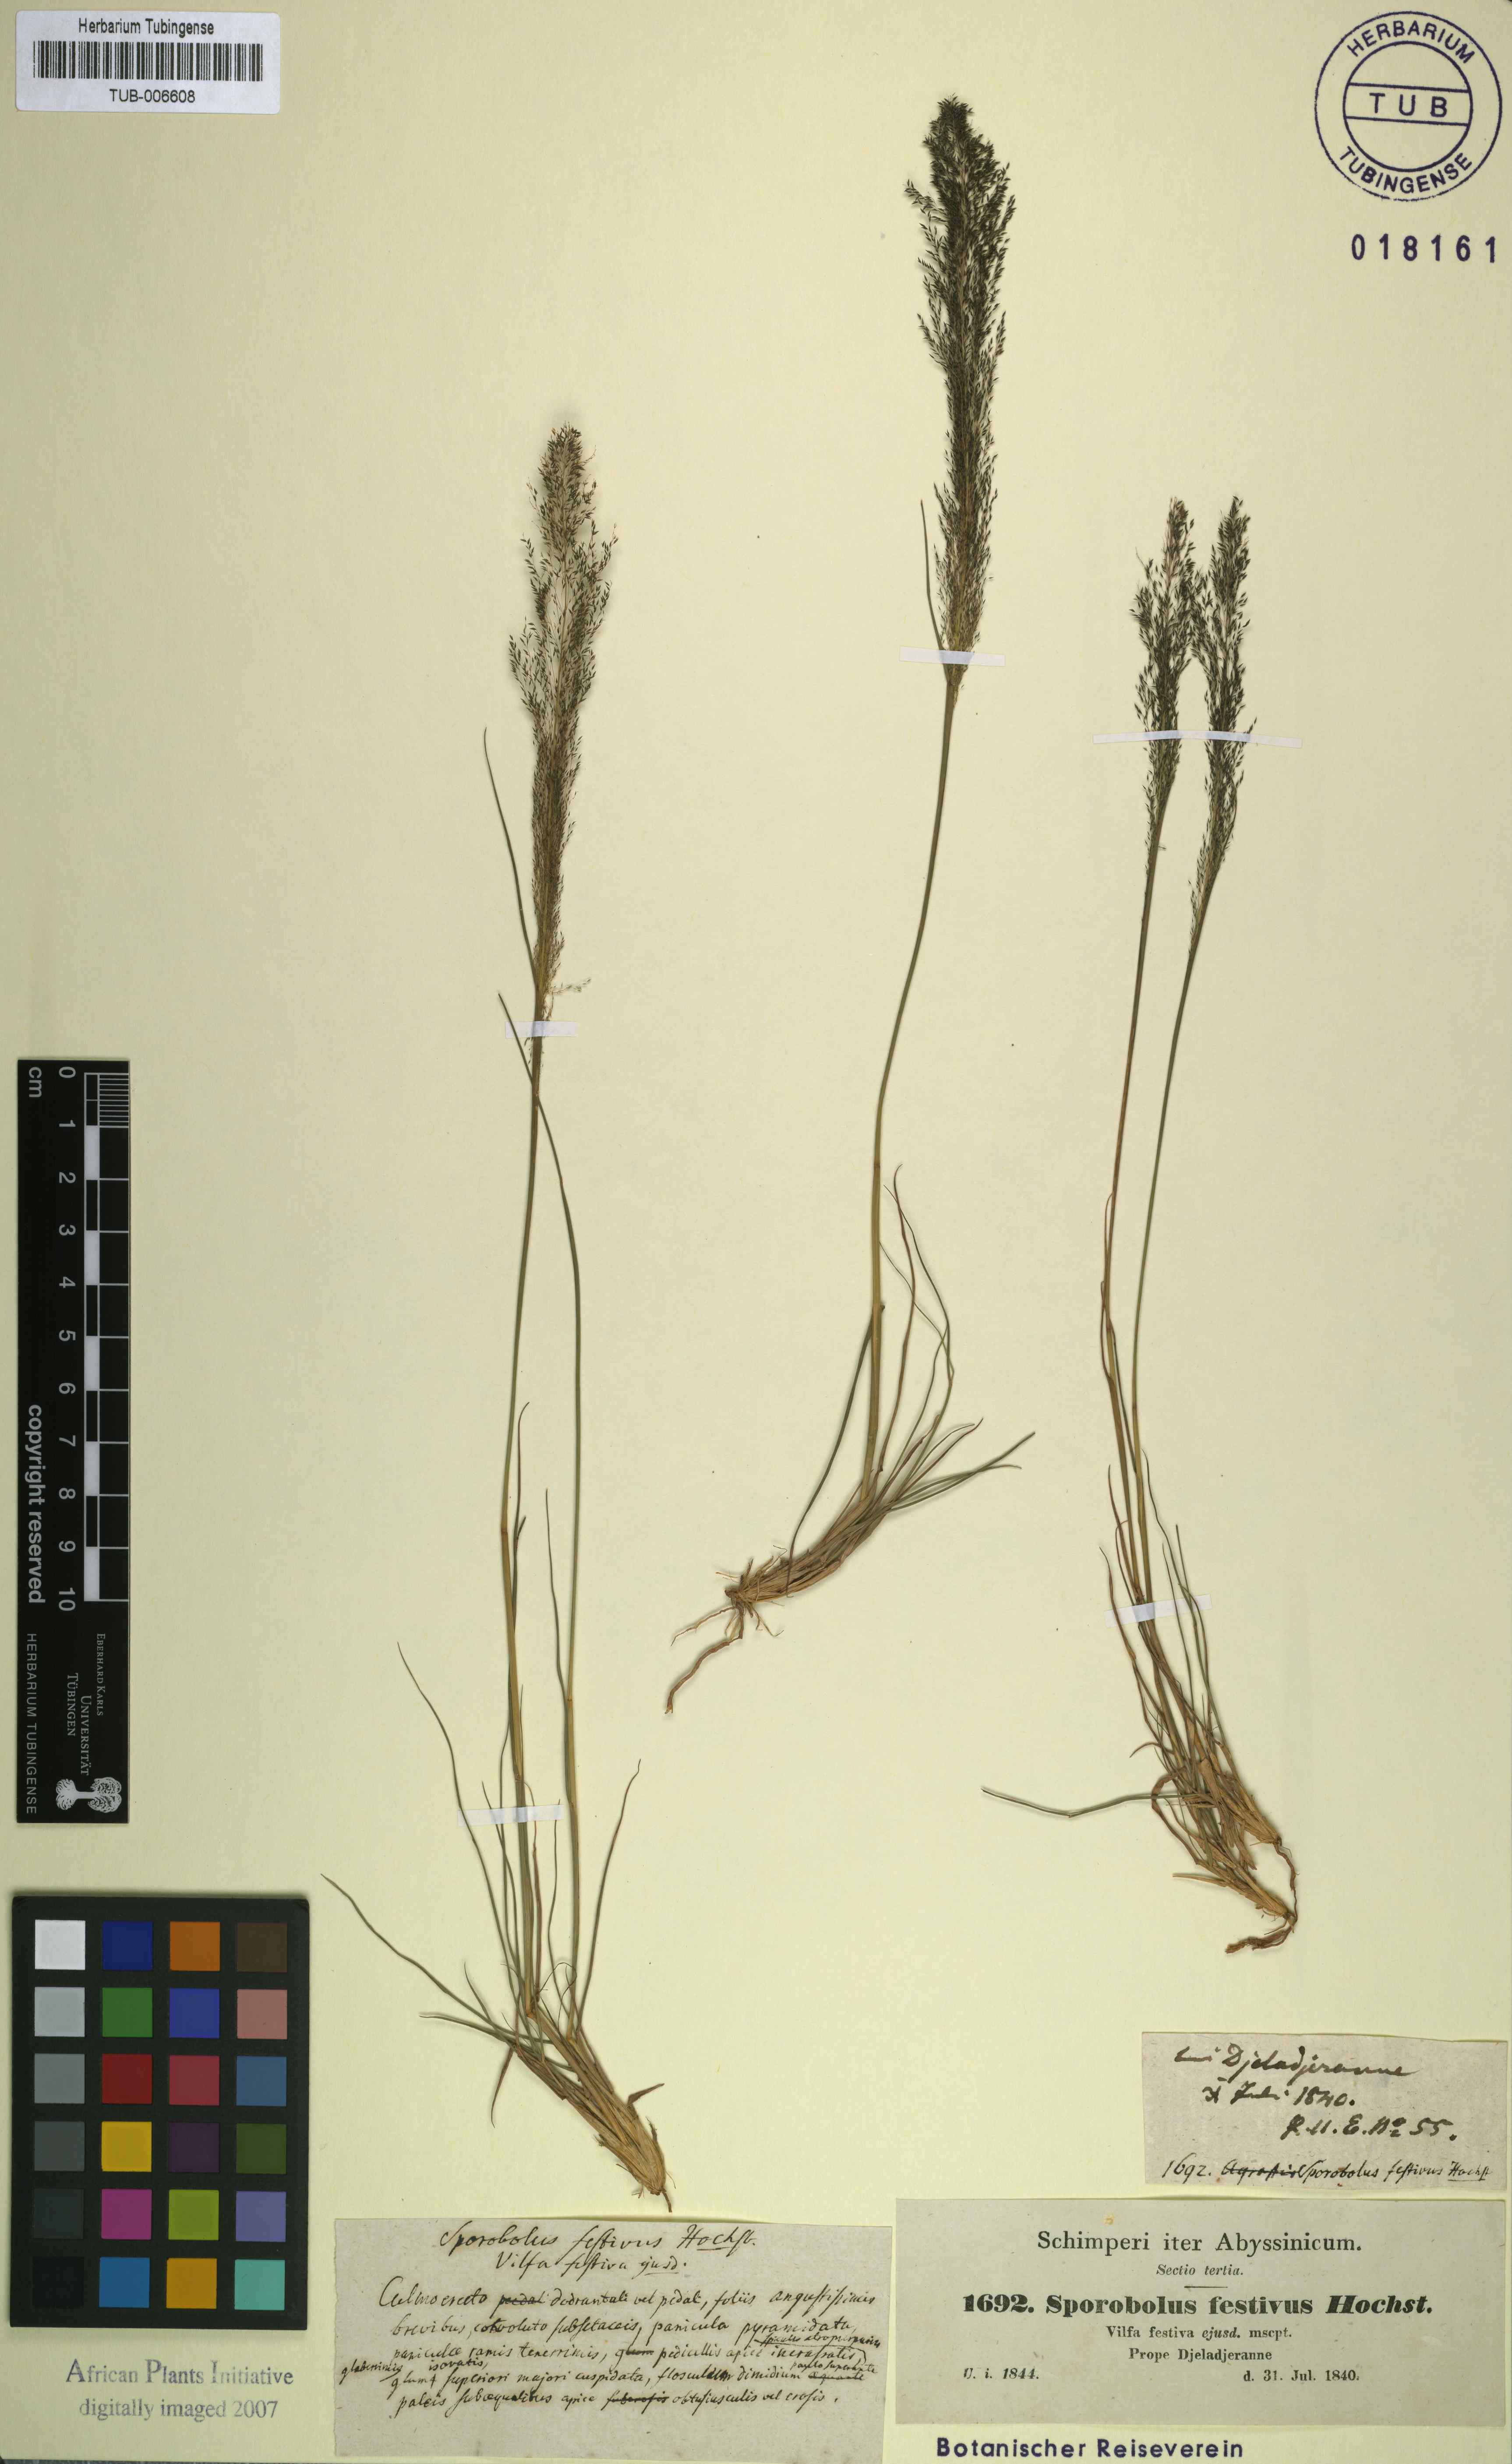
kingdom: Plantae
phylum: Tracheophyta
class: Liliopsida
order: Poales
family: Poaceae
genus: Sporobolus
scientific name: Sporobolus festivus
